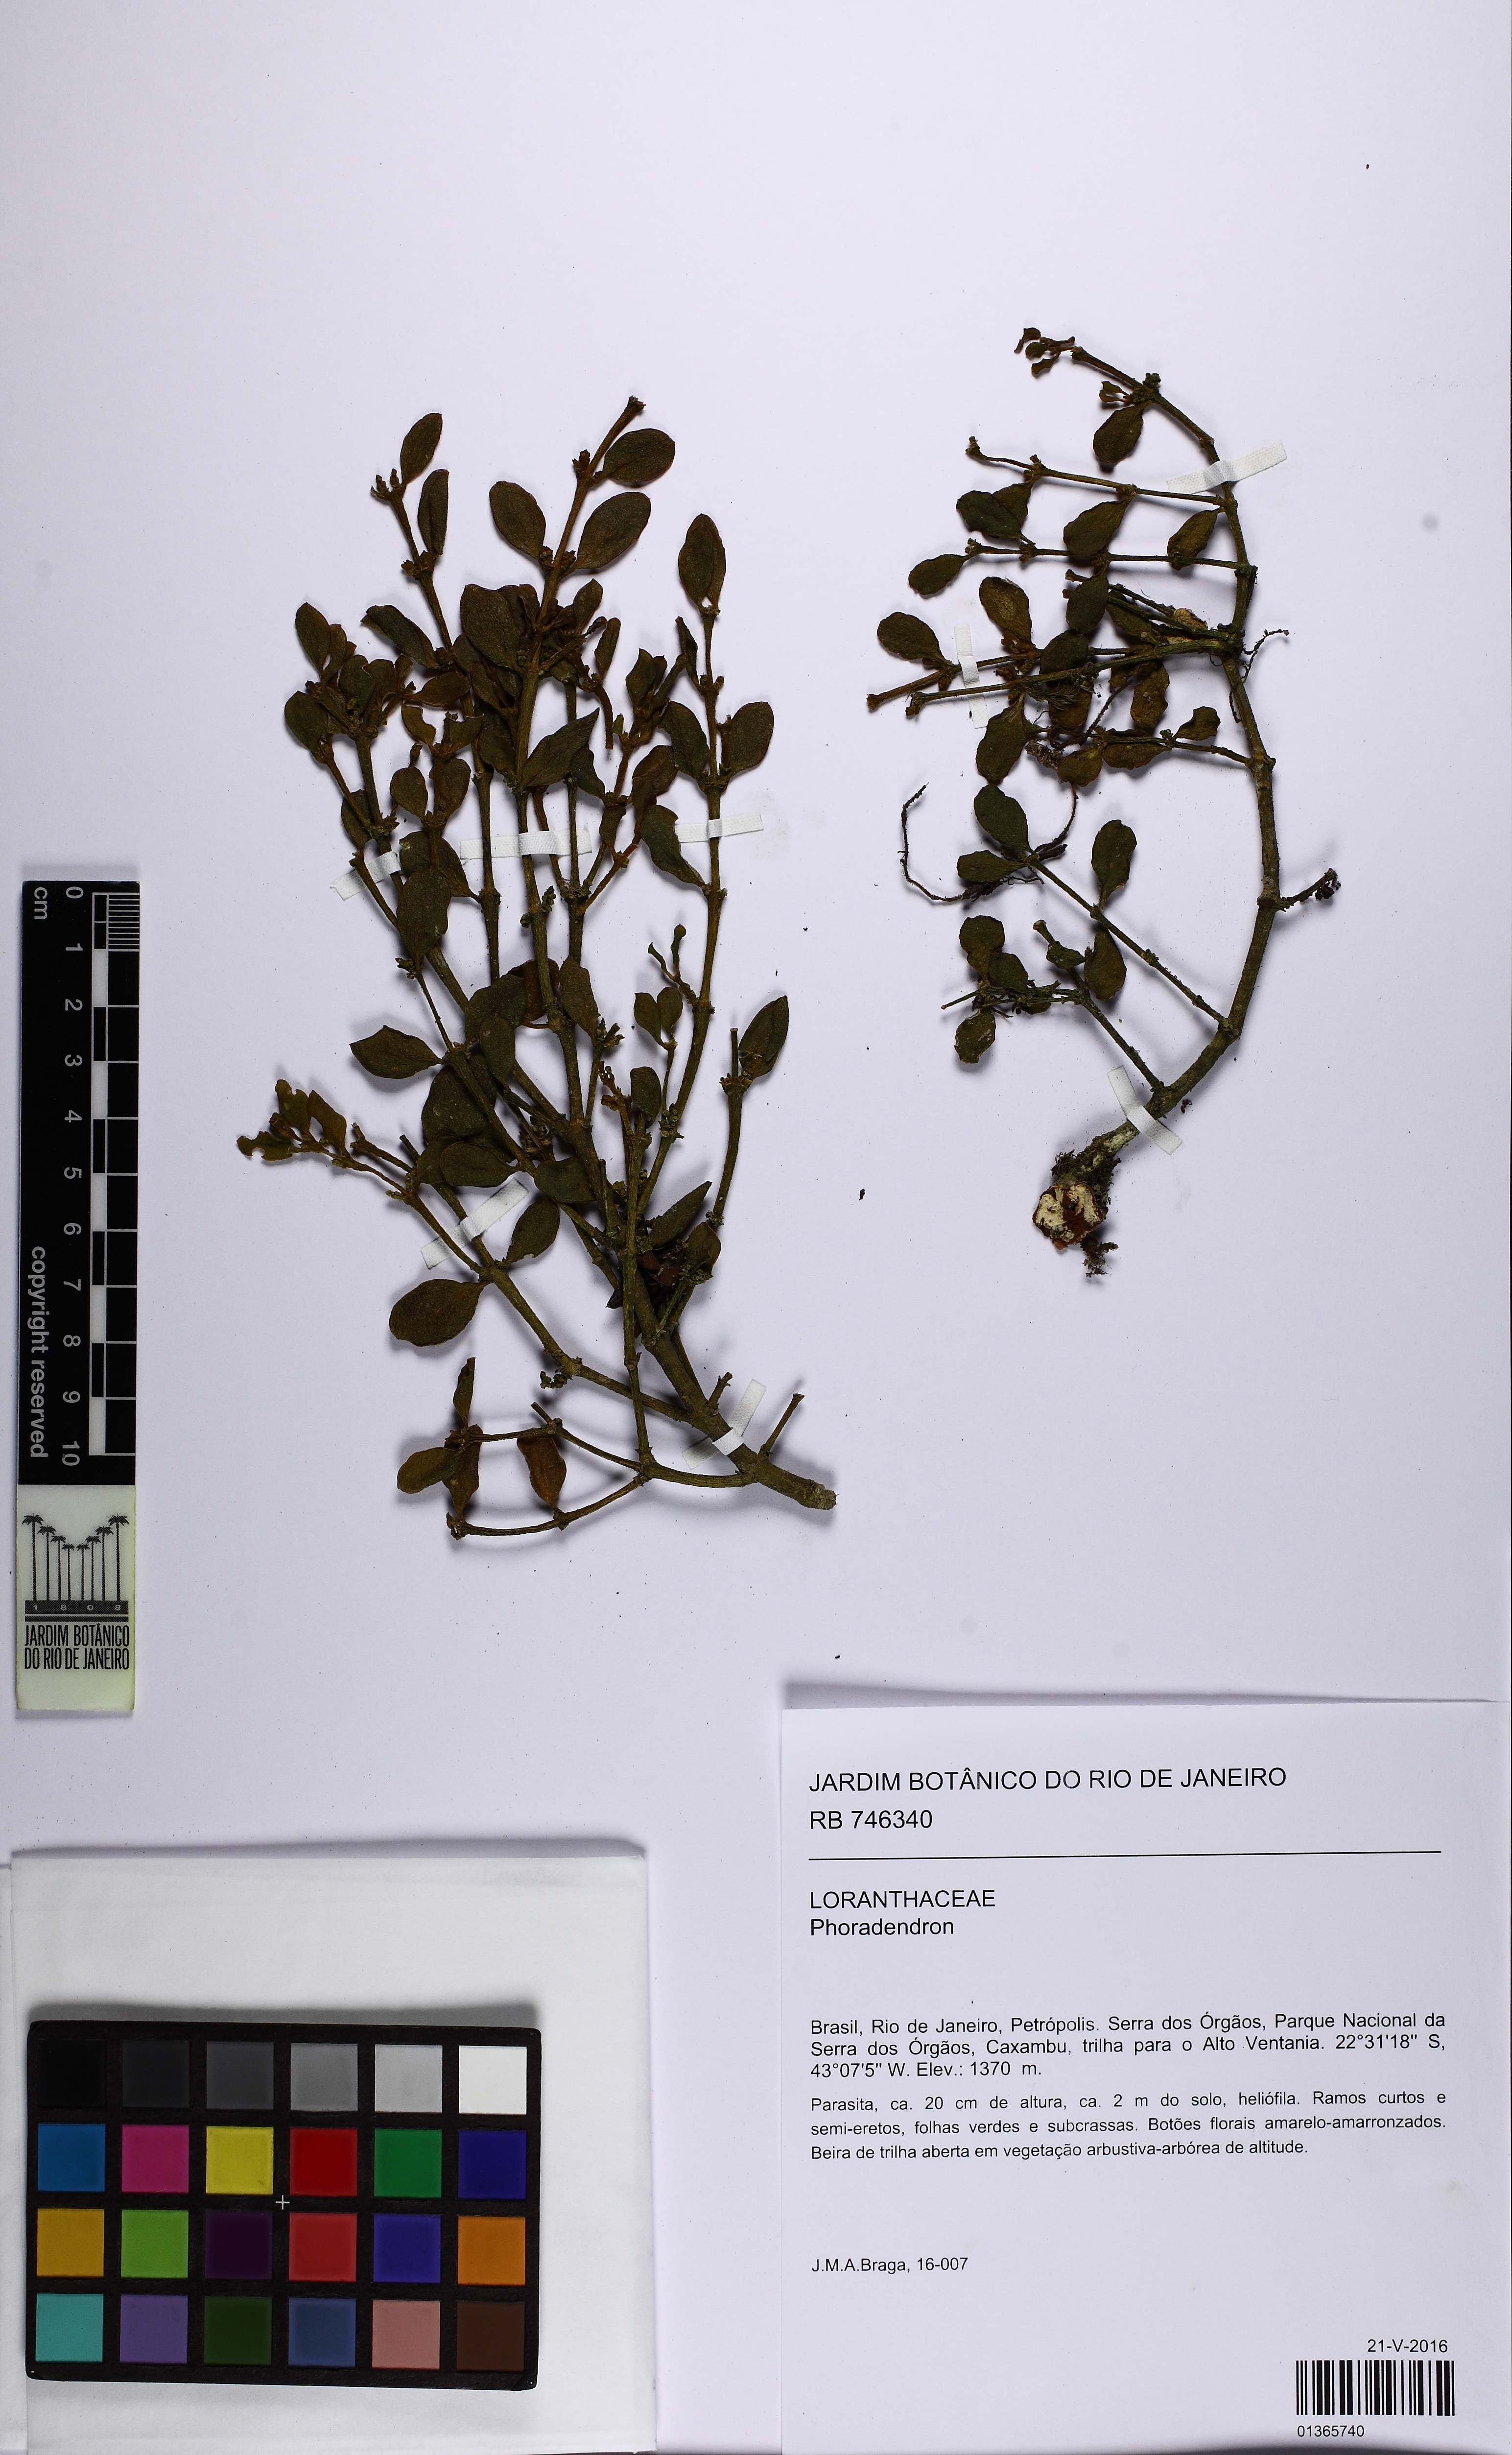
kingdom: Plantae
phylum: Tracheophyta
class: Magnoliopsida
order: Santalales
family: Viscaceae
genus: Dendrophthora
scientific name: Dendrophthora elliptica
